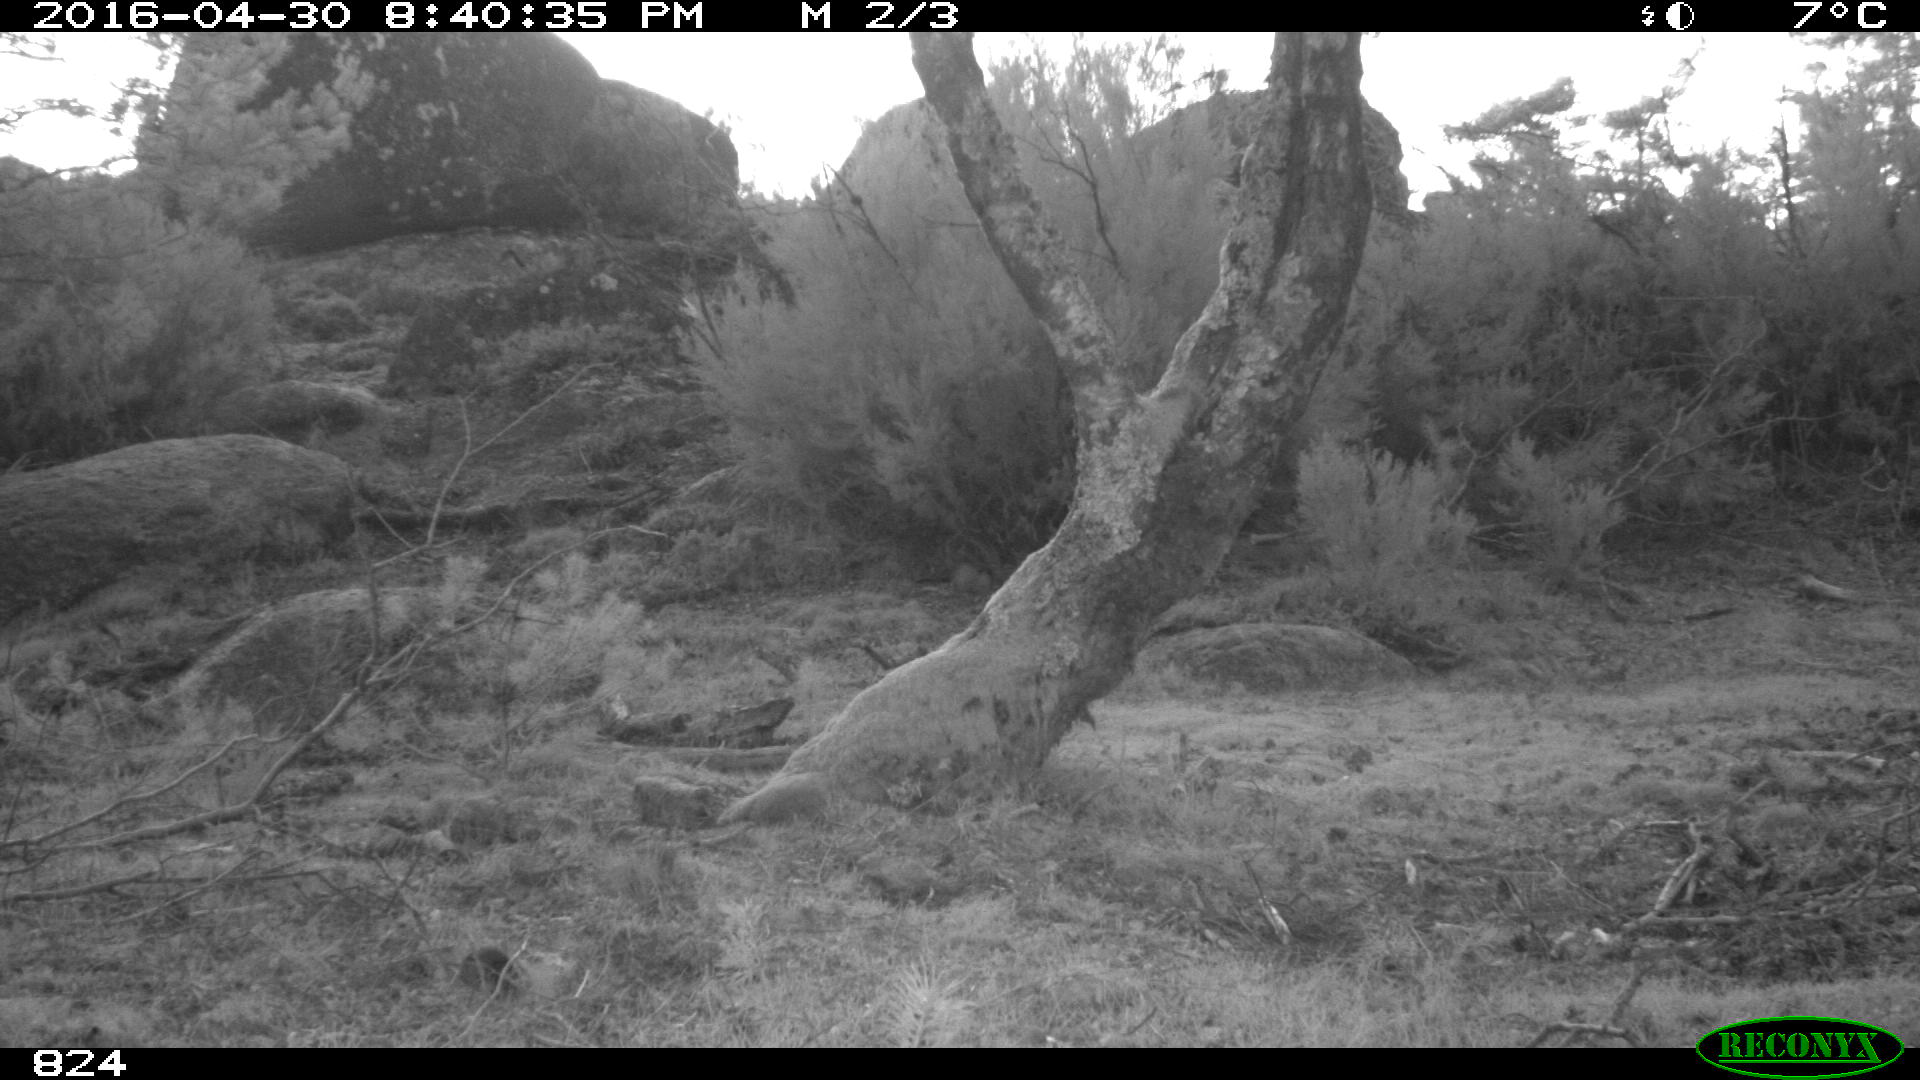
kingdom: Animalia
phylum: Chordata
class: Mammalia
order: Carnivora
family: Canidae
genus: Canis
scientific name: Canis lupus
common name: Gray wolf
